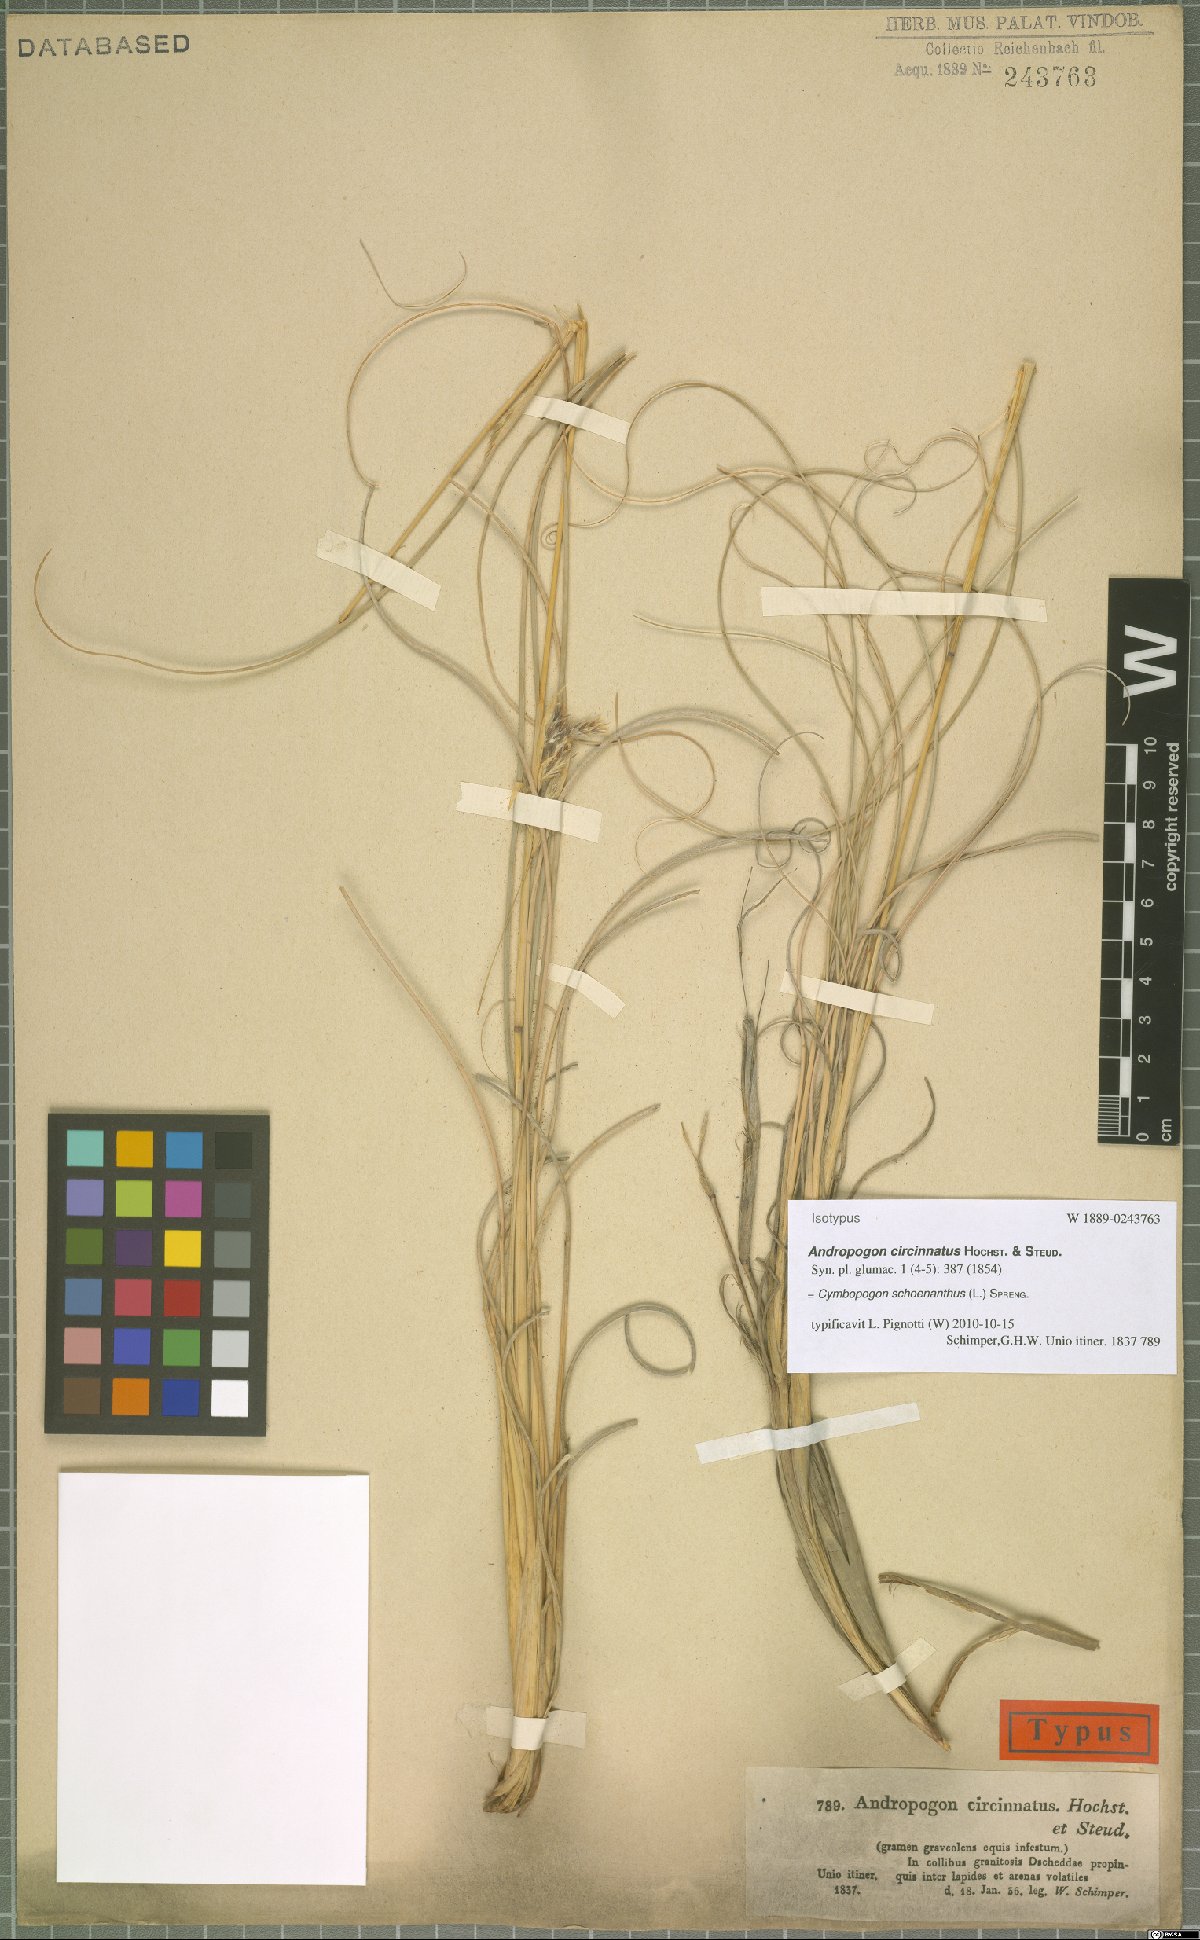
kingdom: Plantae
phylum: Tracheophyta
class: Liliopsida
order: Poales
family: Poaceae
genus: Cymbopogon
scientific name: Cymbopogon schoenanthus
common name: Geranium grass
